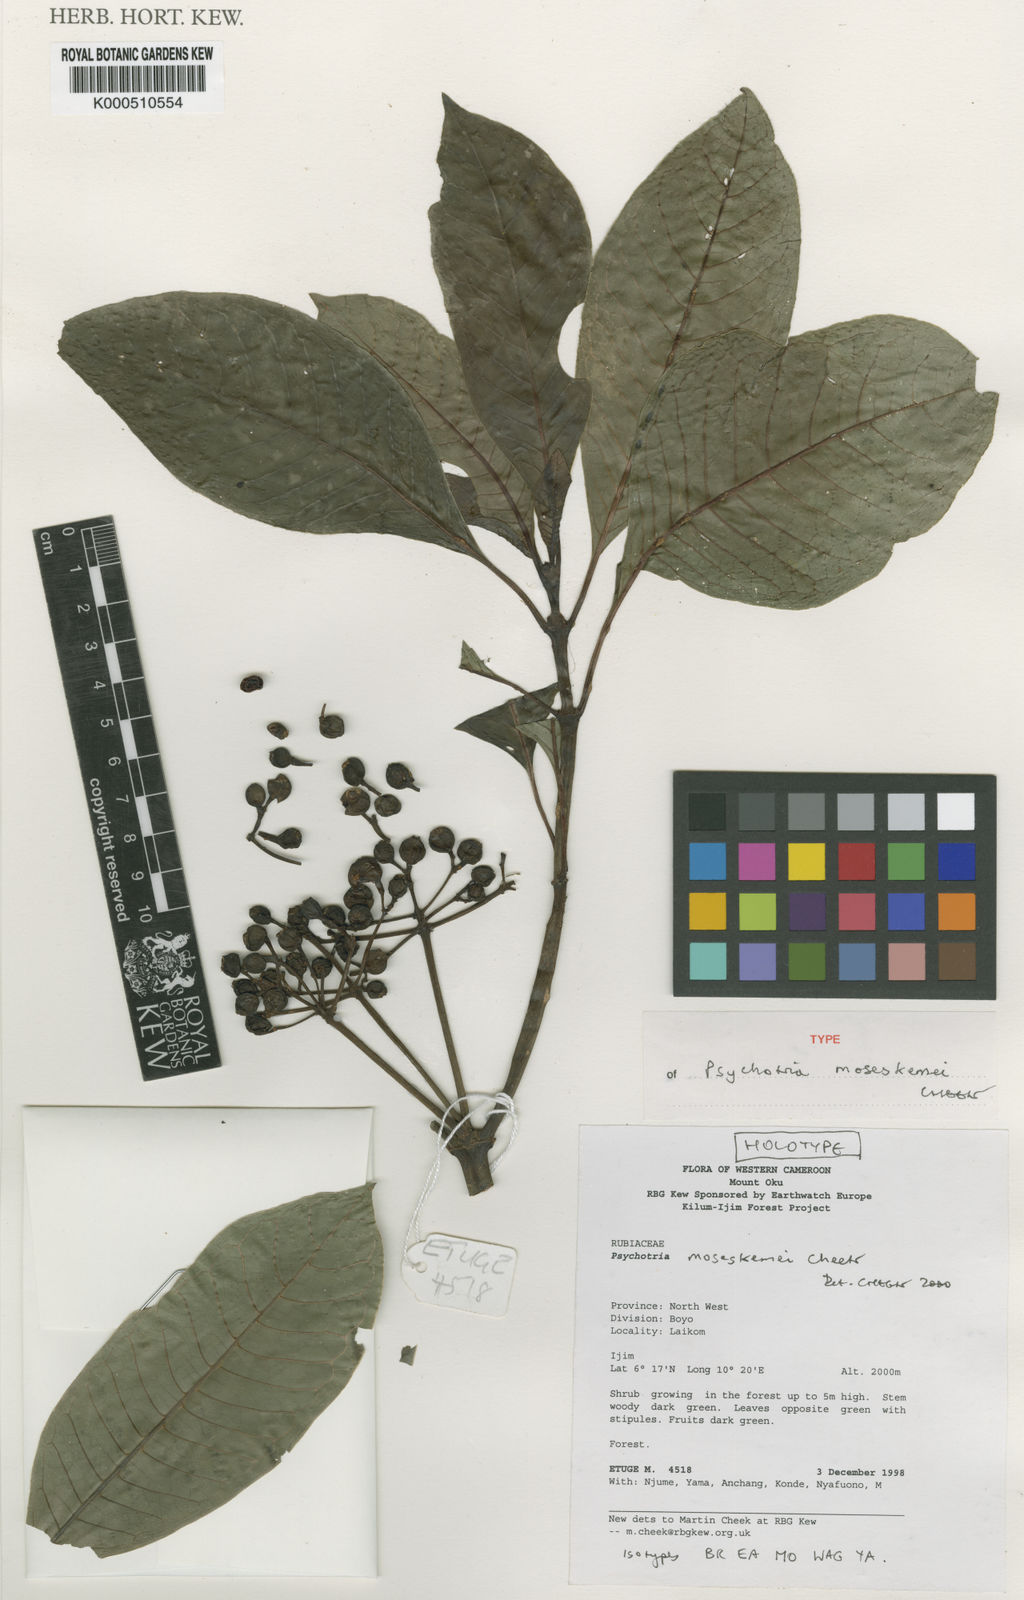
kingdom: Plantae
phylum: Tracheophyta
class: Magnoliopsida
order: Gentianales
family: Rubiaceae
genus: Psychotria
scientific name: Psychotria chalconeura
